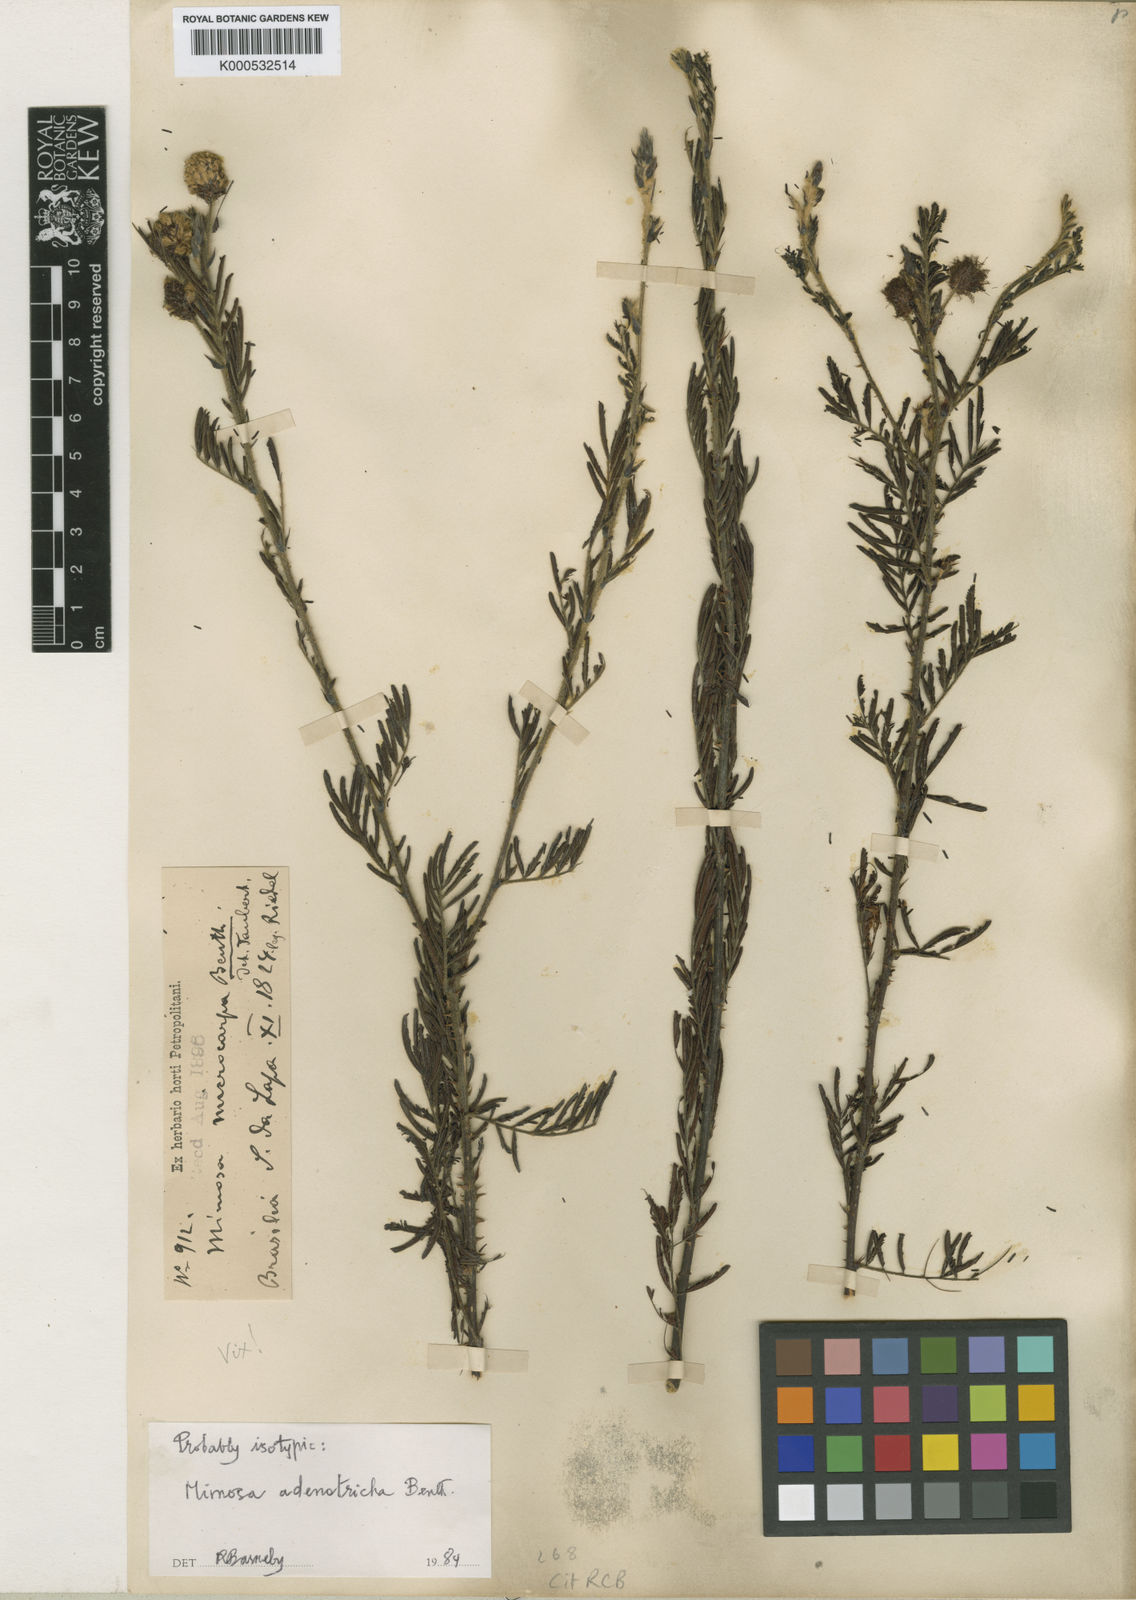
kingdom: Plantae
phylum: Tracheophyta
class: Magnoliopsida
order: Fabales
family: Fabaceae
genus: Mimosa
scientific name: Mimosa brachycarpa
